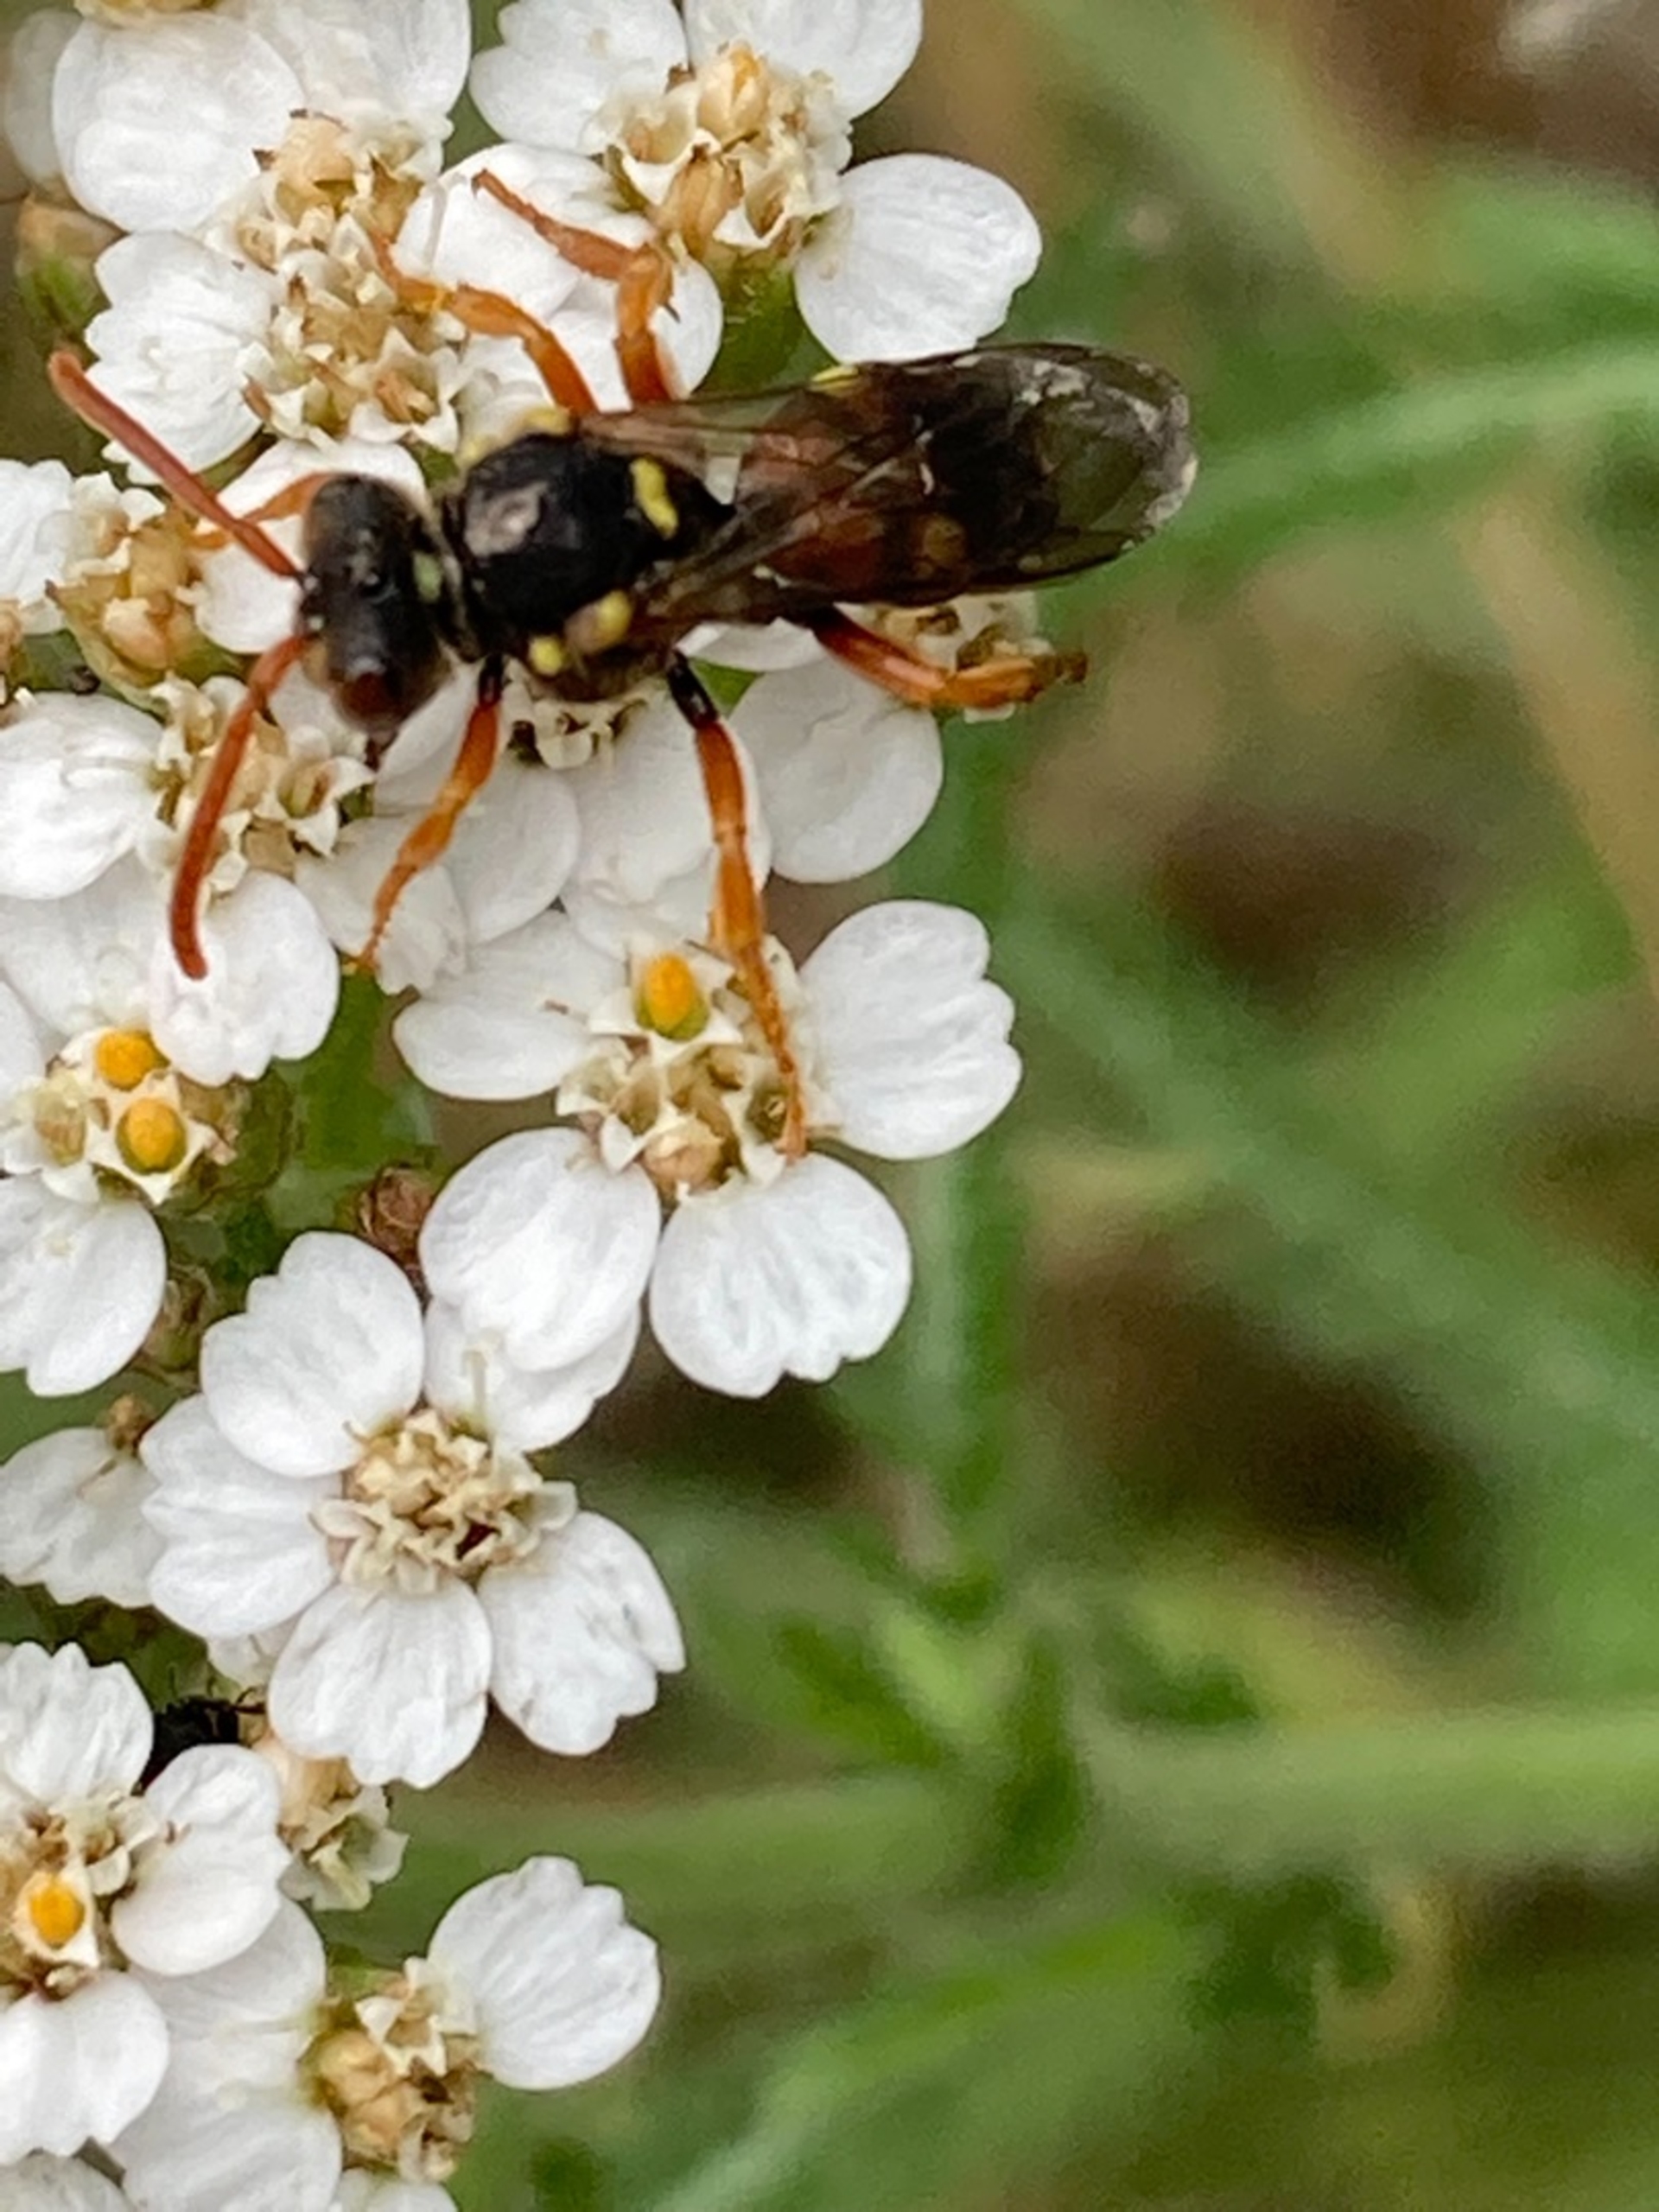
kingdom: Animalia
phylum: Arthropoda
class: Insecta
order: Hymenoptera
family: Apidae
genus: Nomada
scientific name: Nomada fucata
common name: Pragthvepsebi
